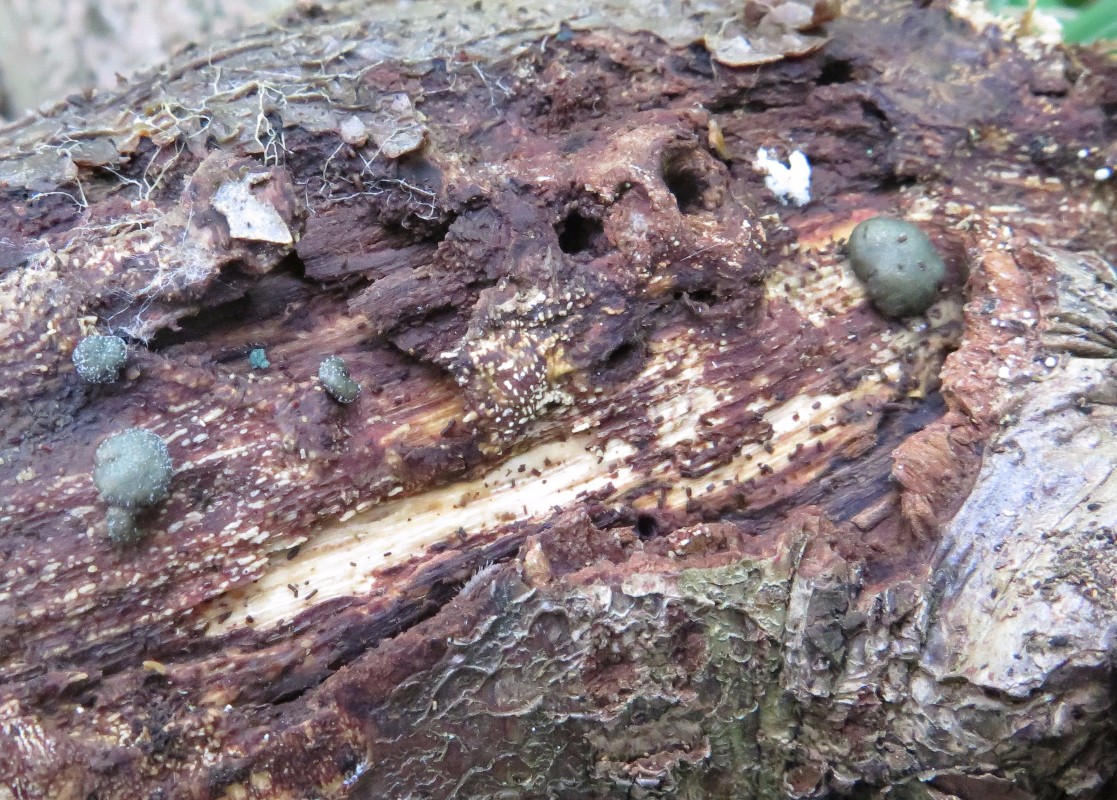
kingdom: Fungi
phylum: Ascomycota
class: Sordariomycetes
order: Hypocreales
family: Hypocreaceae
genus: Trichoderma
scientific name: Trichoderma
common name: kødkerne
